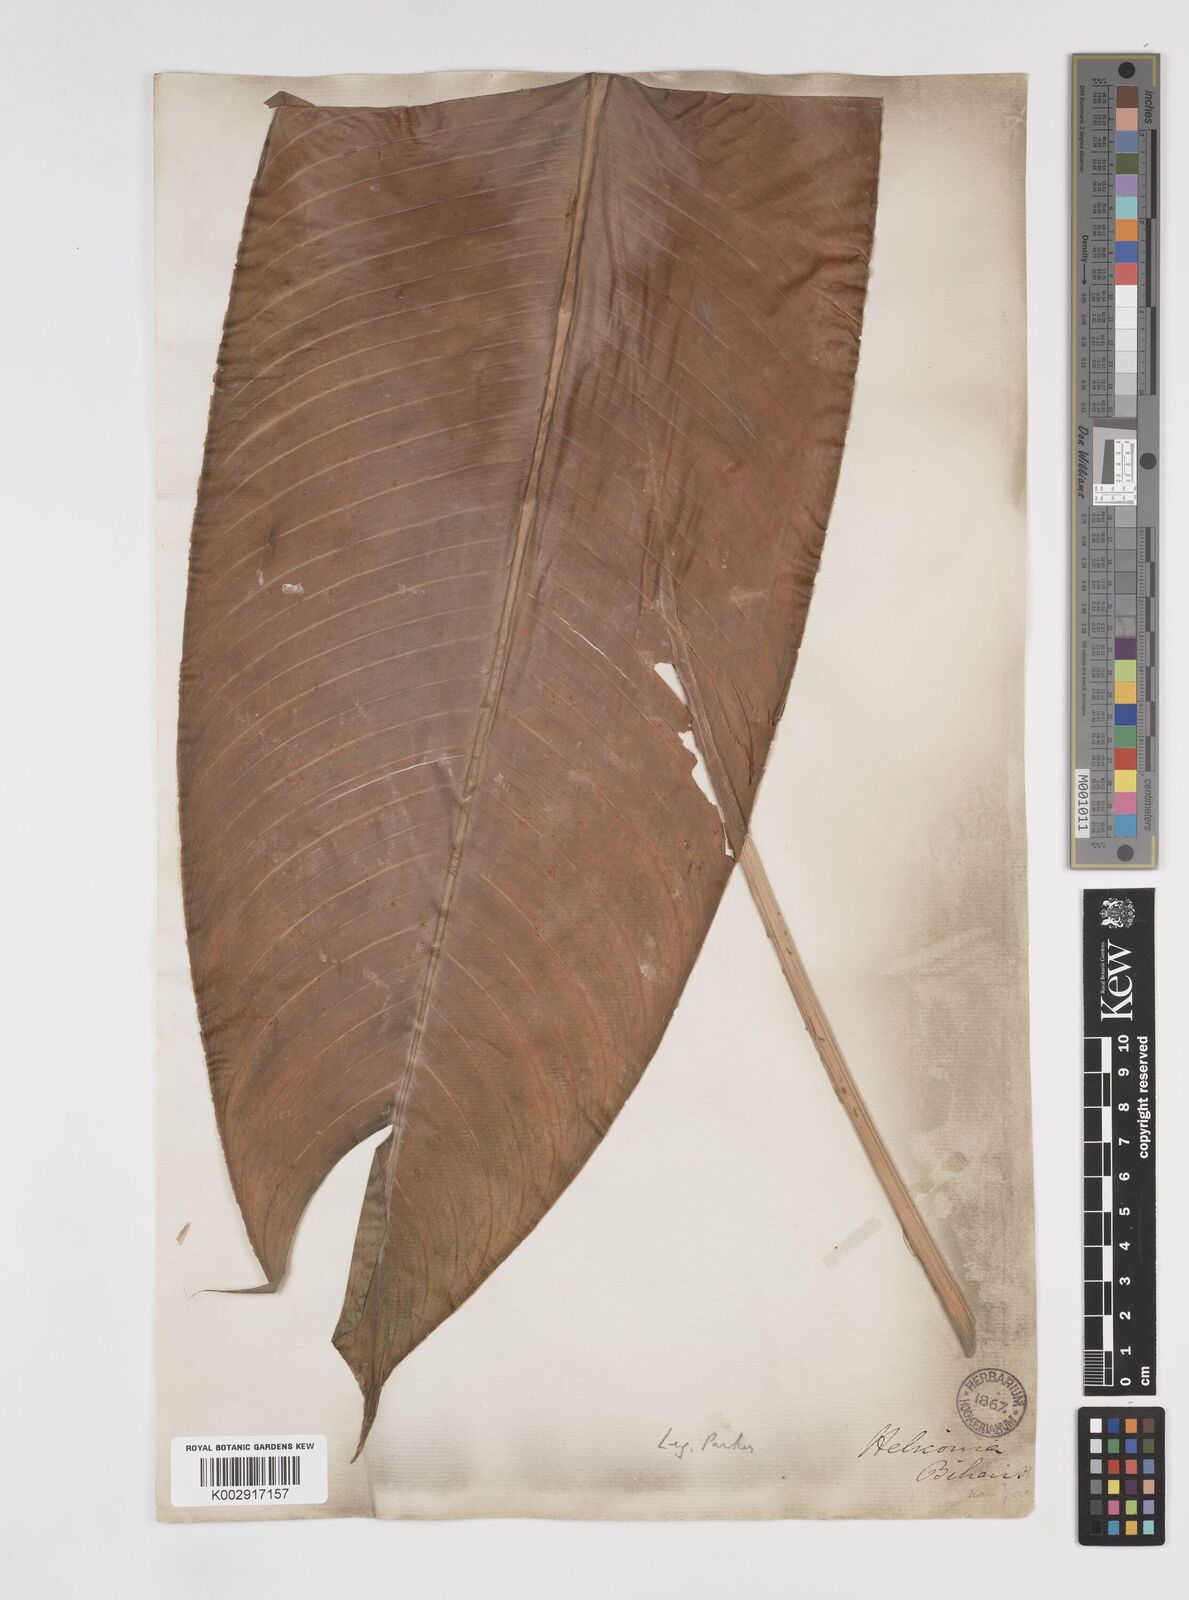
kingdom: Plantae
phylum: Tracheophyta
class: Liliopsida
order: Zingiberales
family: Heliconiaceae
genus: Heliconia
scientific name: Heliconia bihai
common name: Macaw flower
